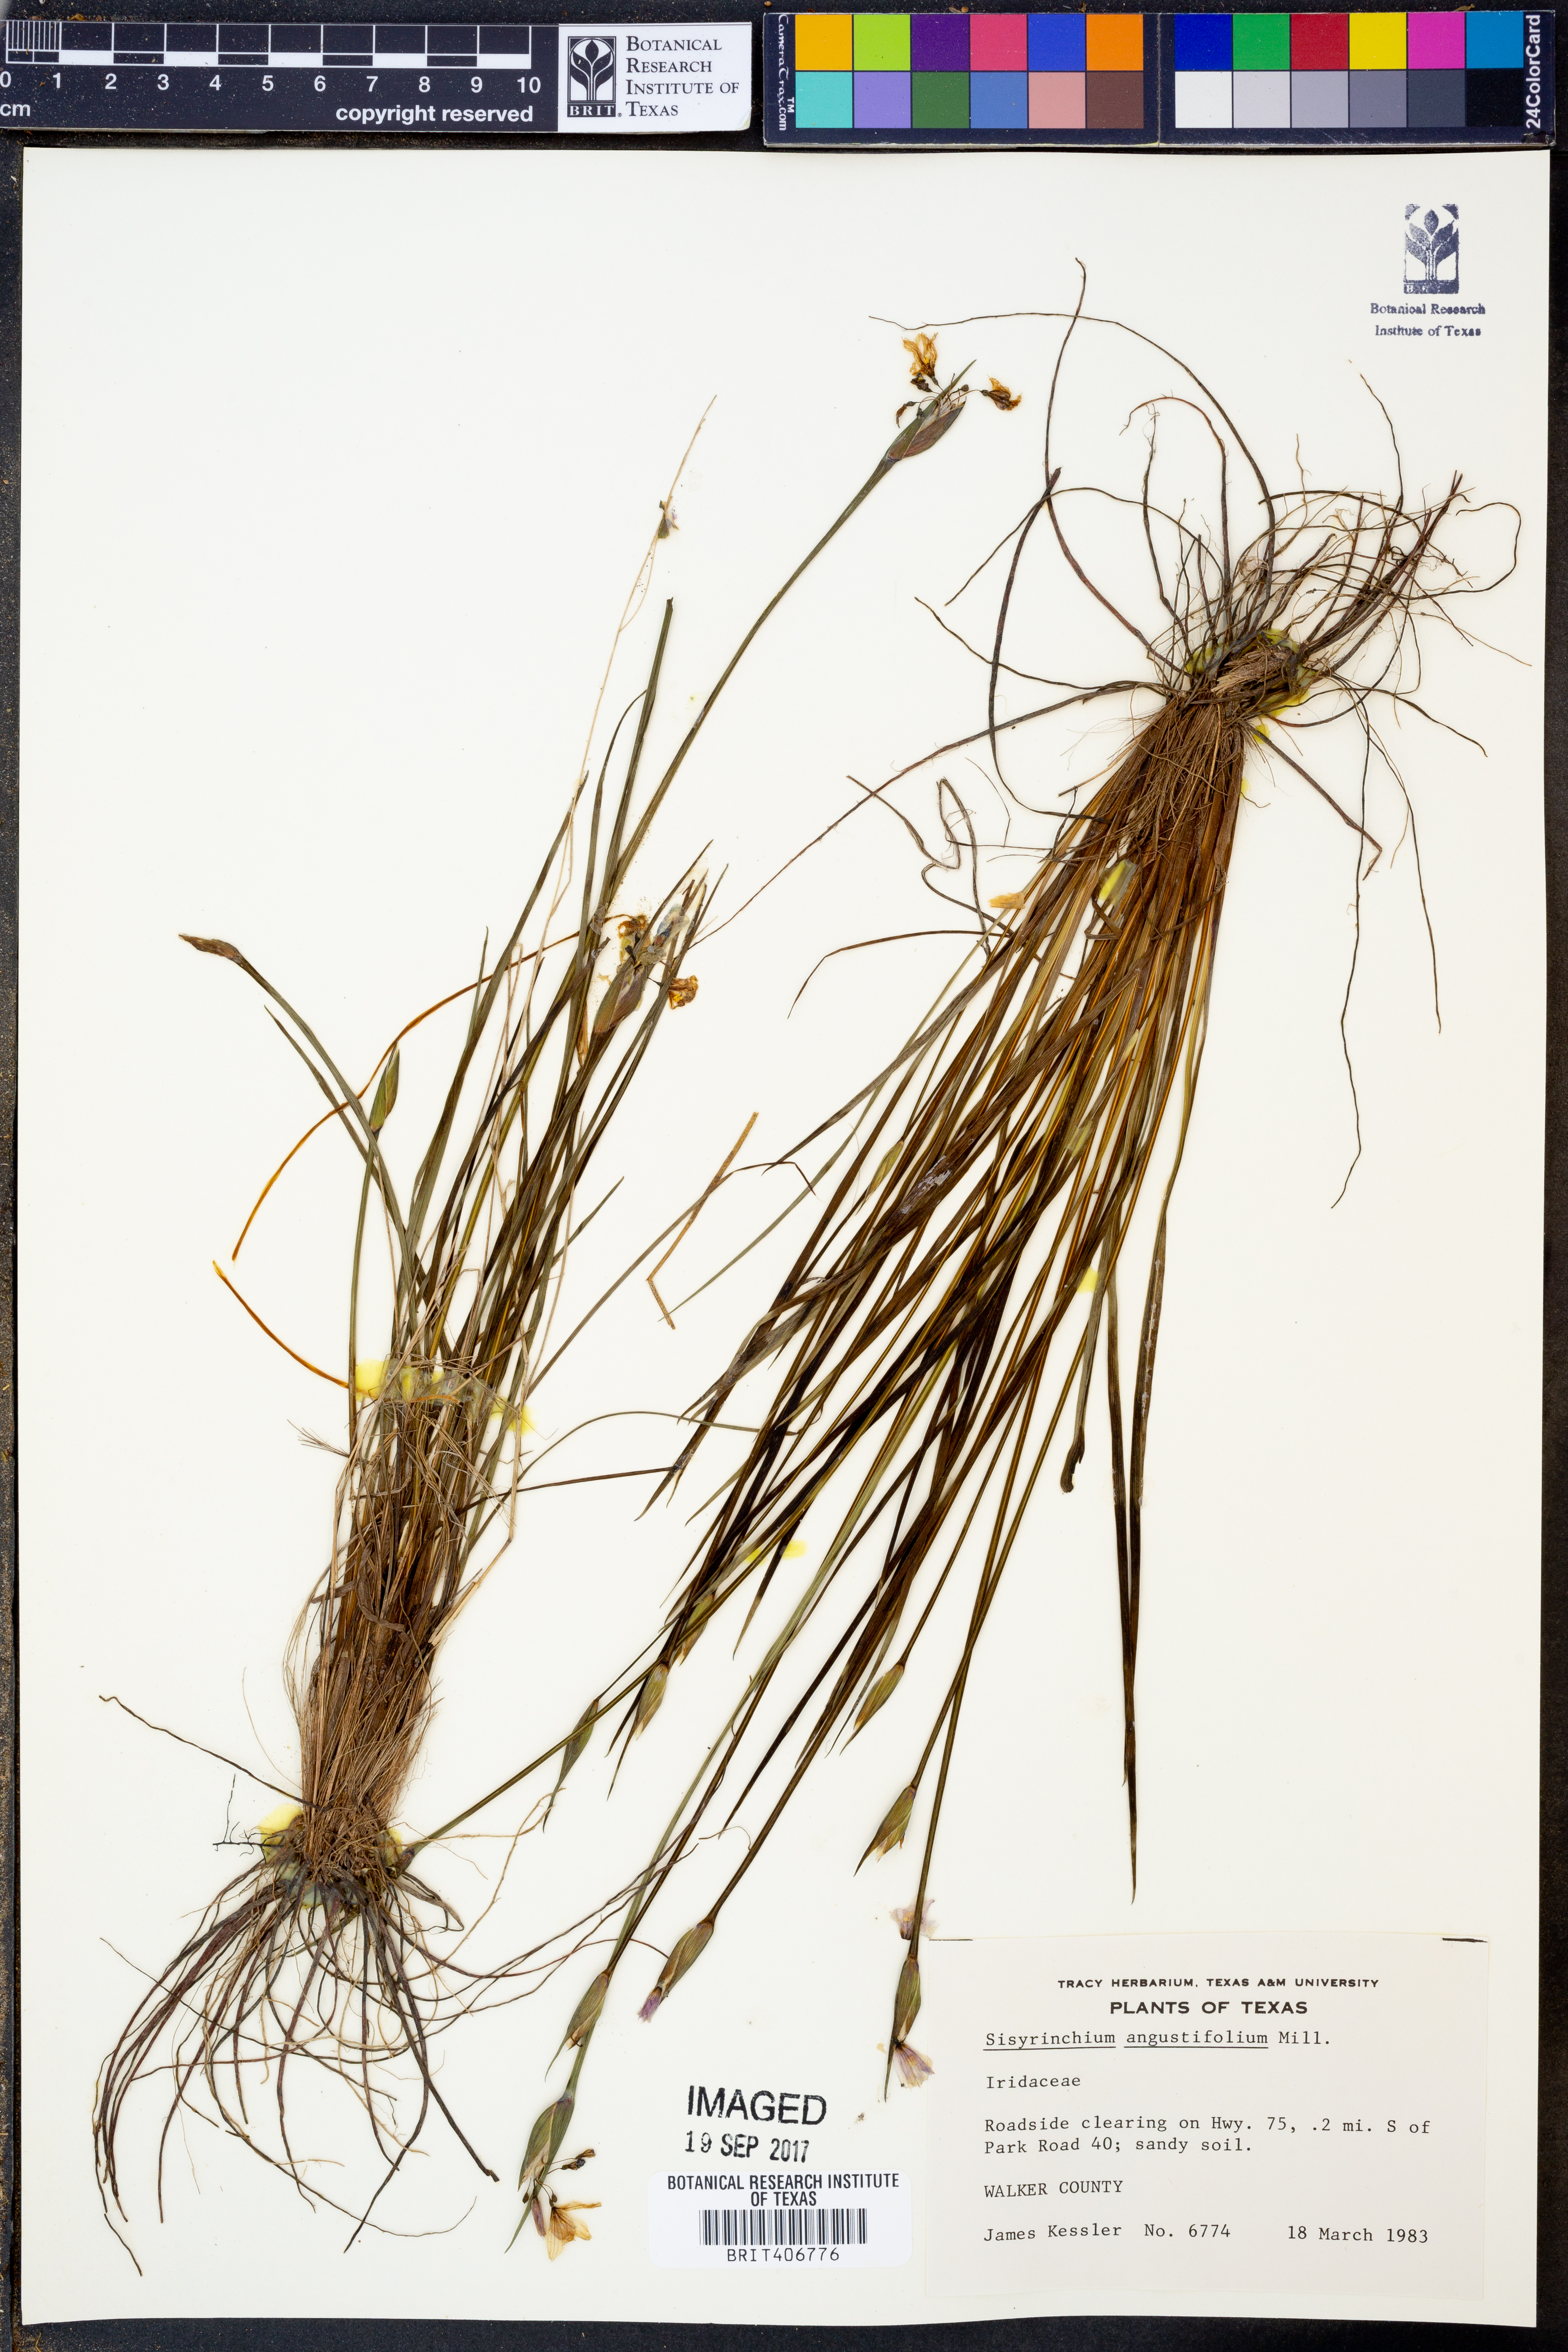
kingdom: Plantae
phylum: Tracheophyta
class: Liliopsida
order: Asparagales
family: Iridaceae
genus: Sisyrinchium
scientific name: Sisyrinchium angustifolium
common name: Narrow-leaf blue-eyed-grass
